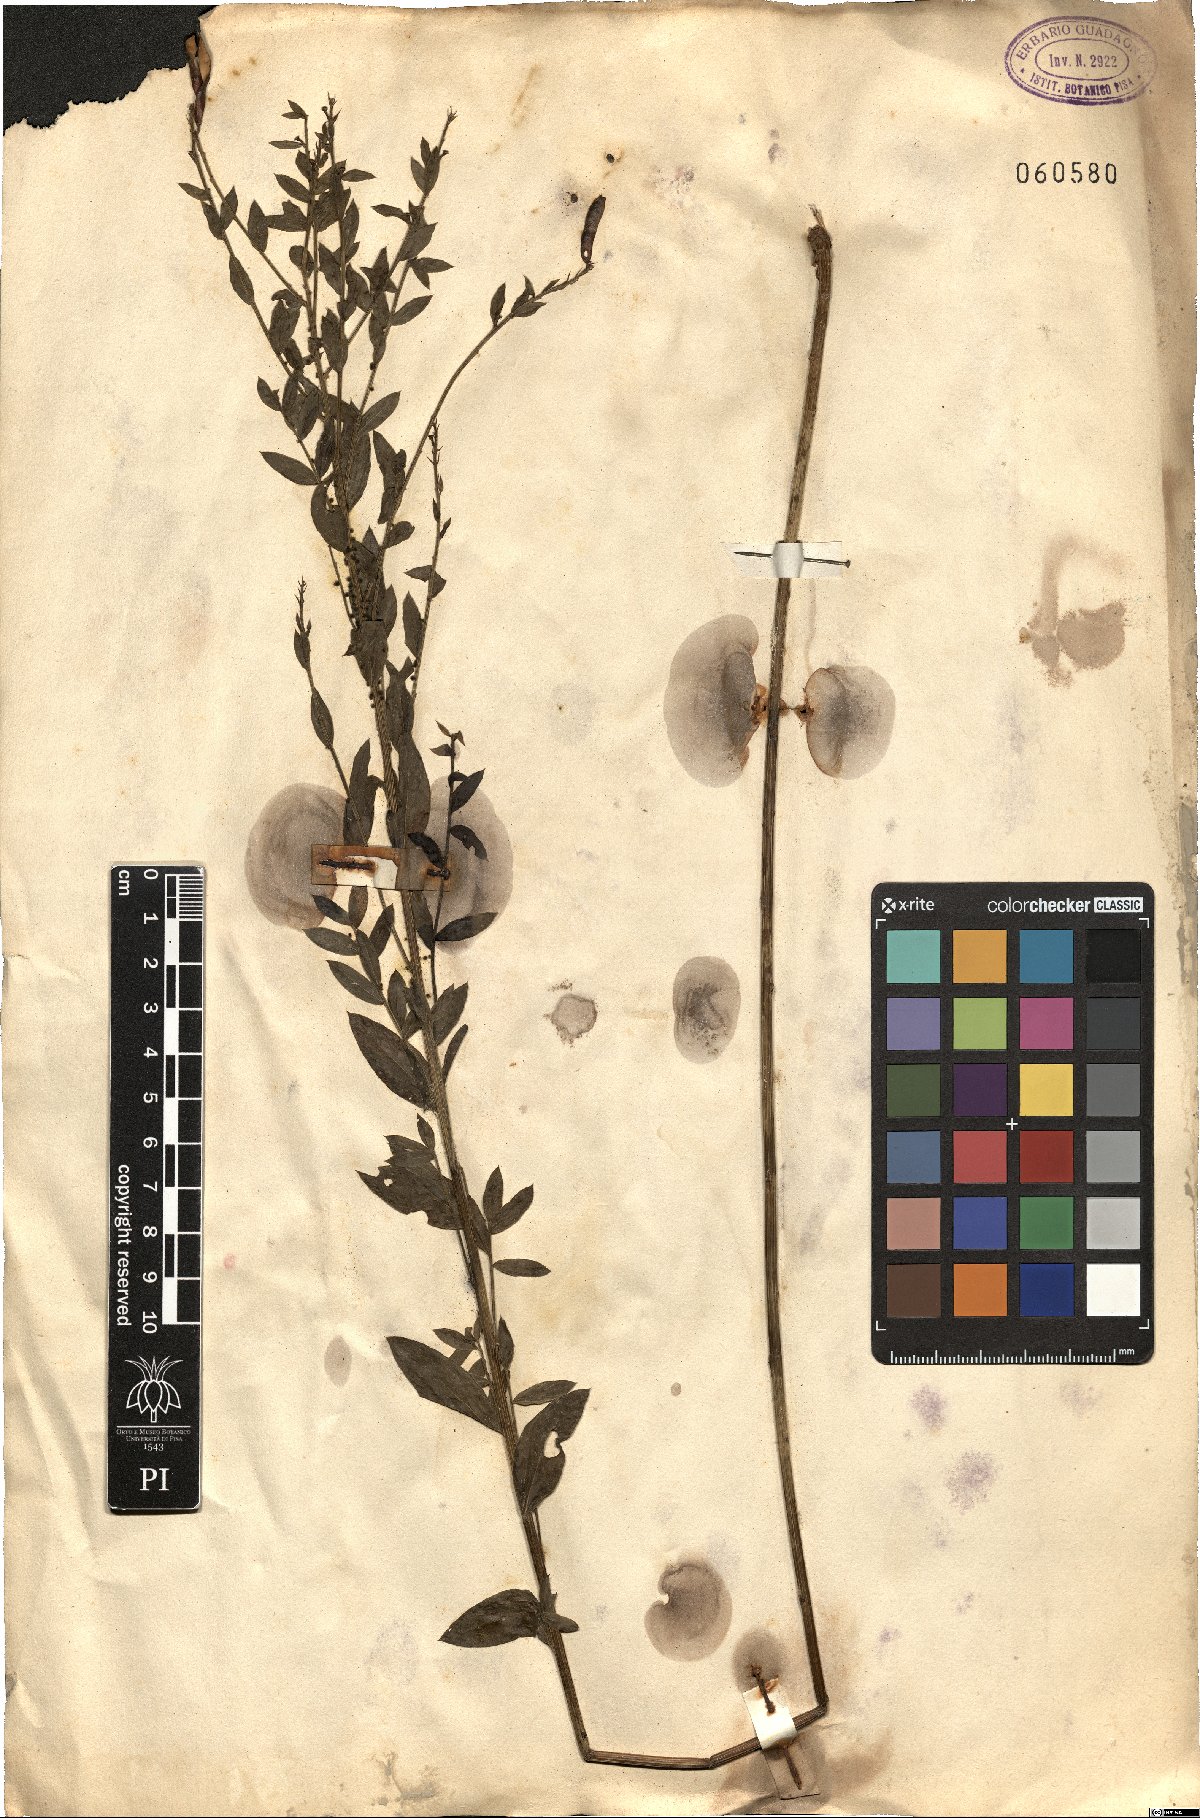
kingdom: Plantae
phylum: Tracheophyta
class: Magnoliopsida
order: Fabales
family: Fabaceae
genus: Genista
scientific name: Genista
